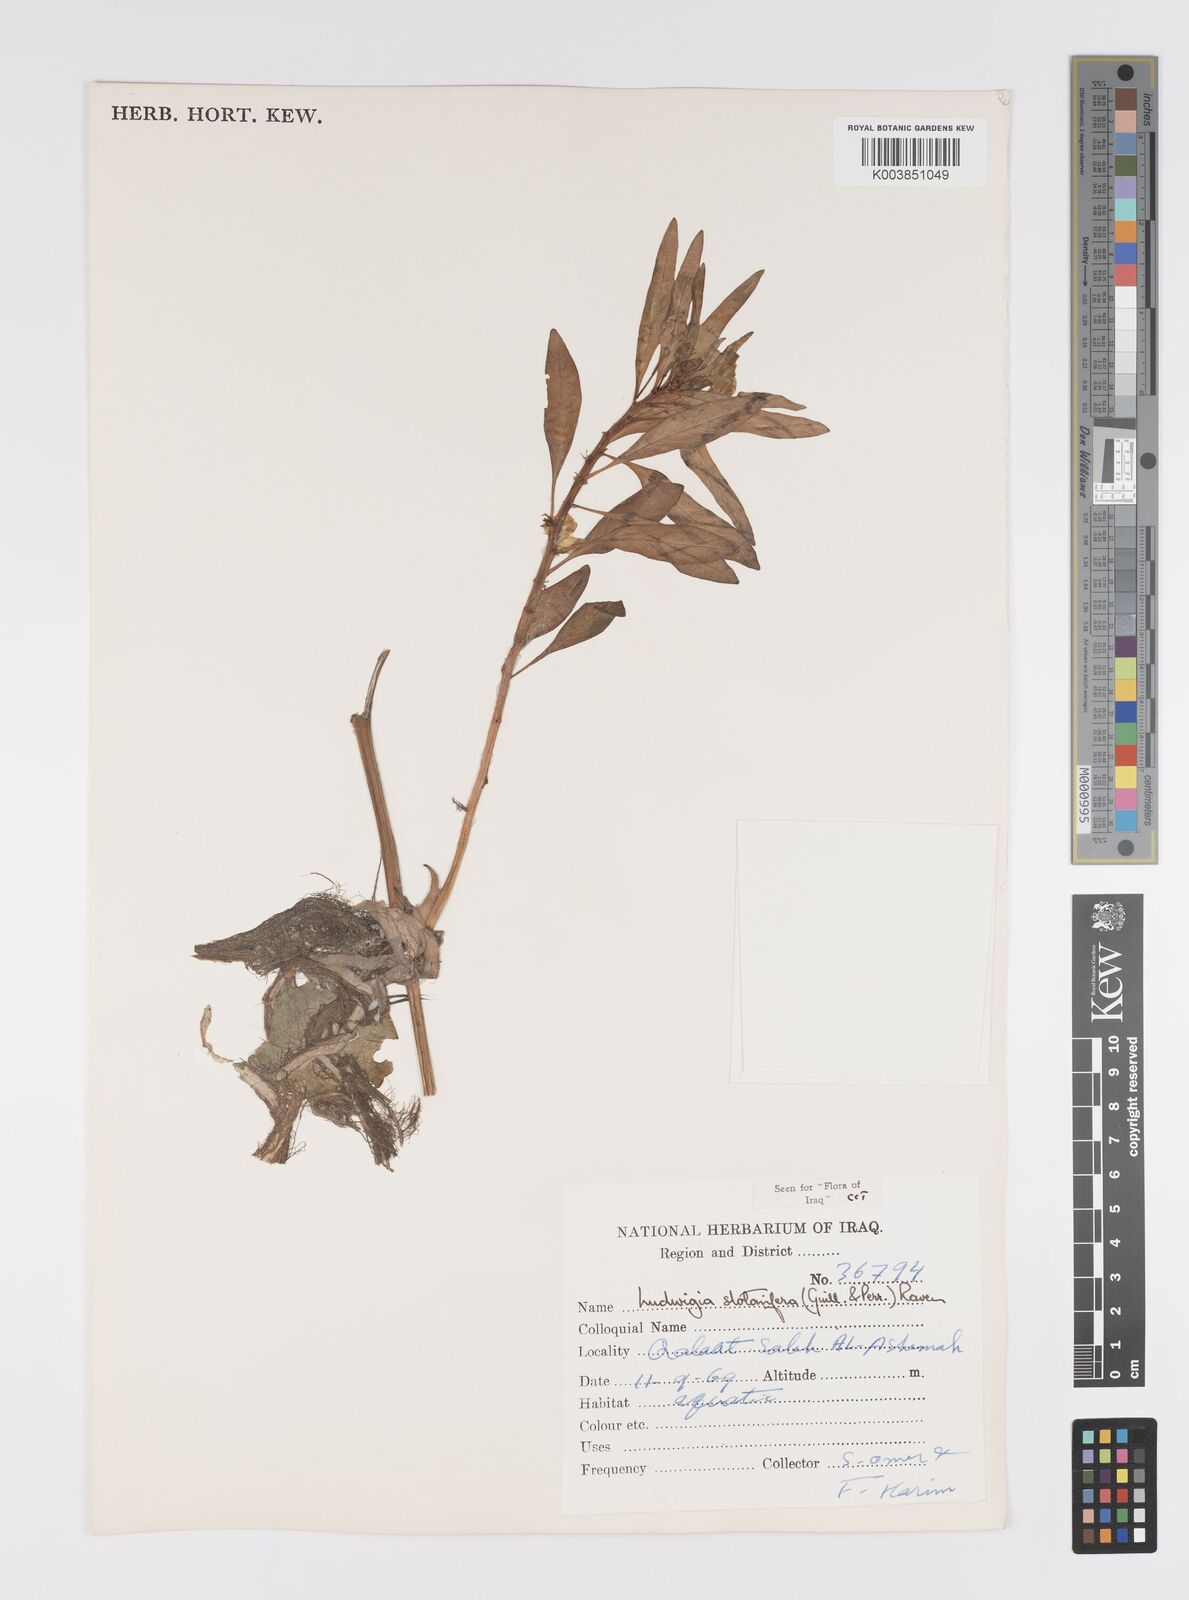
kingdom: Plantae
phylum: Tracheophyta
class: Magnoliopsida
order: Myrtales
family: Onagraceae
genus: Ludwigia
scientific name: Ludwigia adscendens
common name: Creeping water primrose
